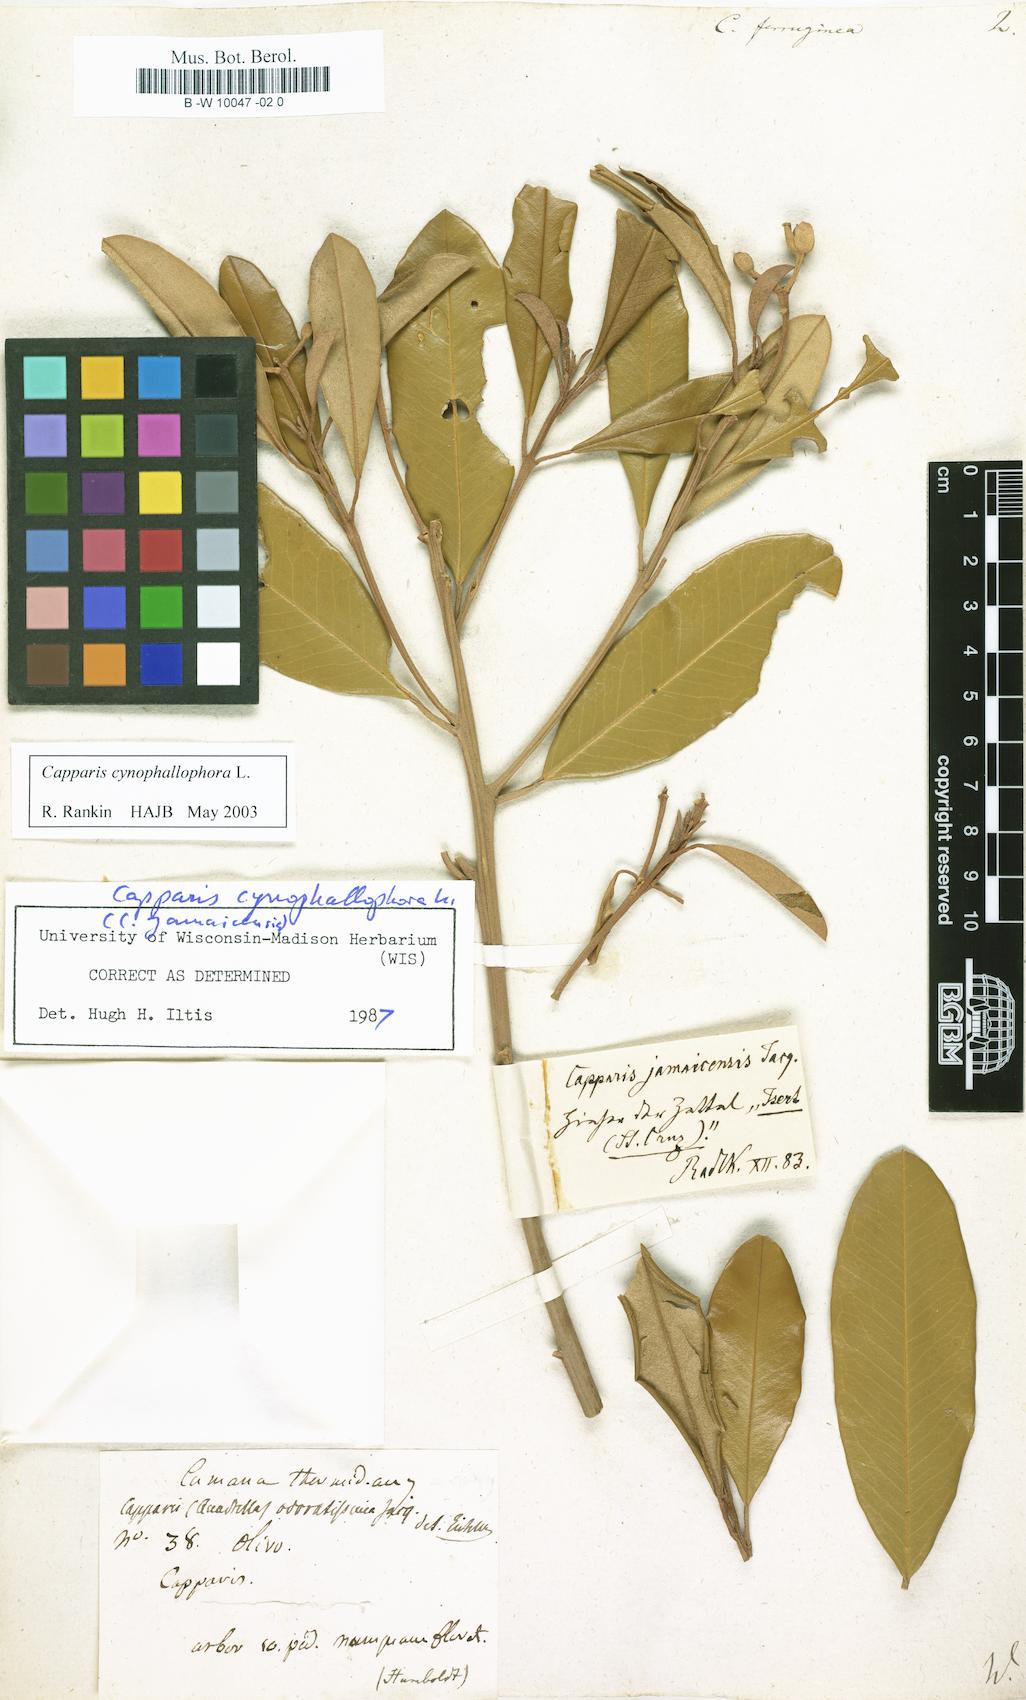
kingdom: Plantae
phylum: Tracheophyta
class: Magnoliopsida
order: Brassicales
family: Capparaceae
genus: Quadrella
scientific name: Quadrella ferruginea
